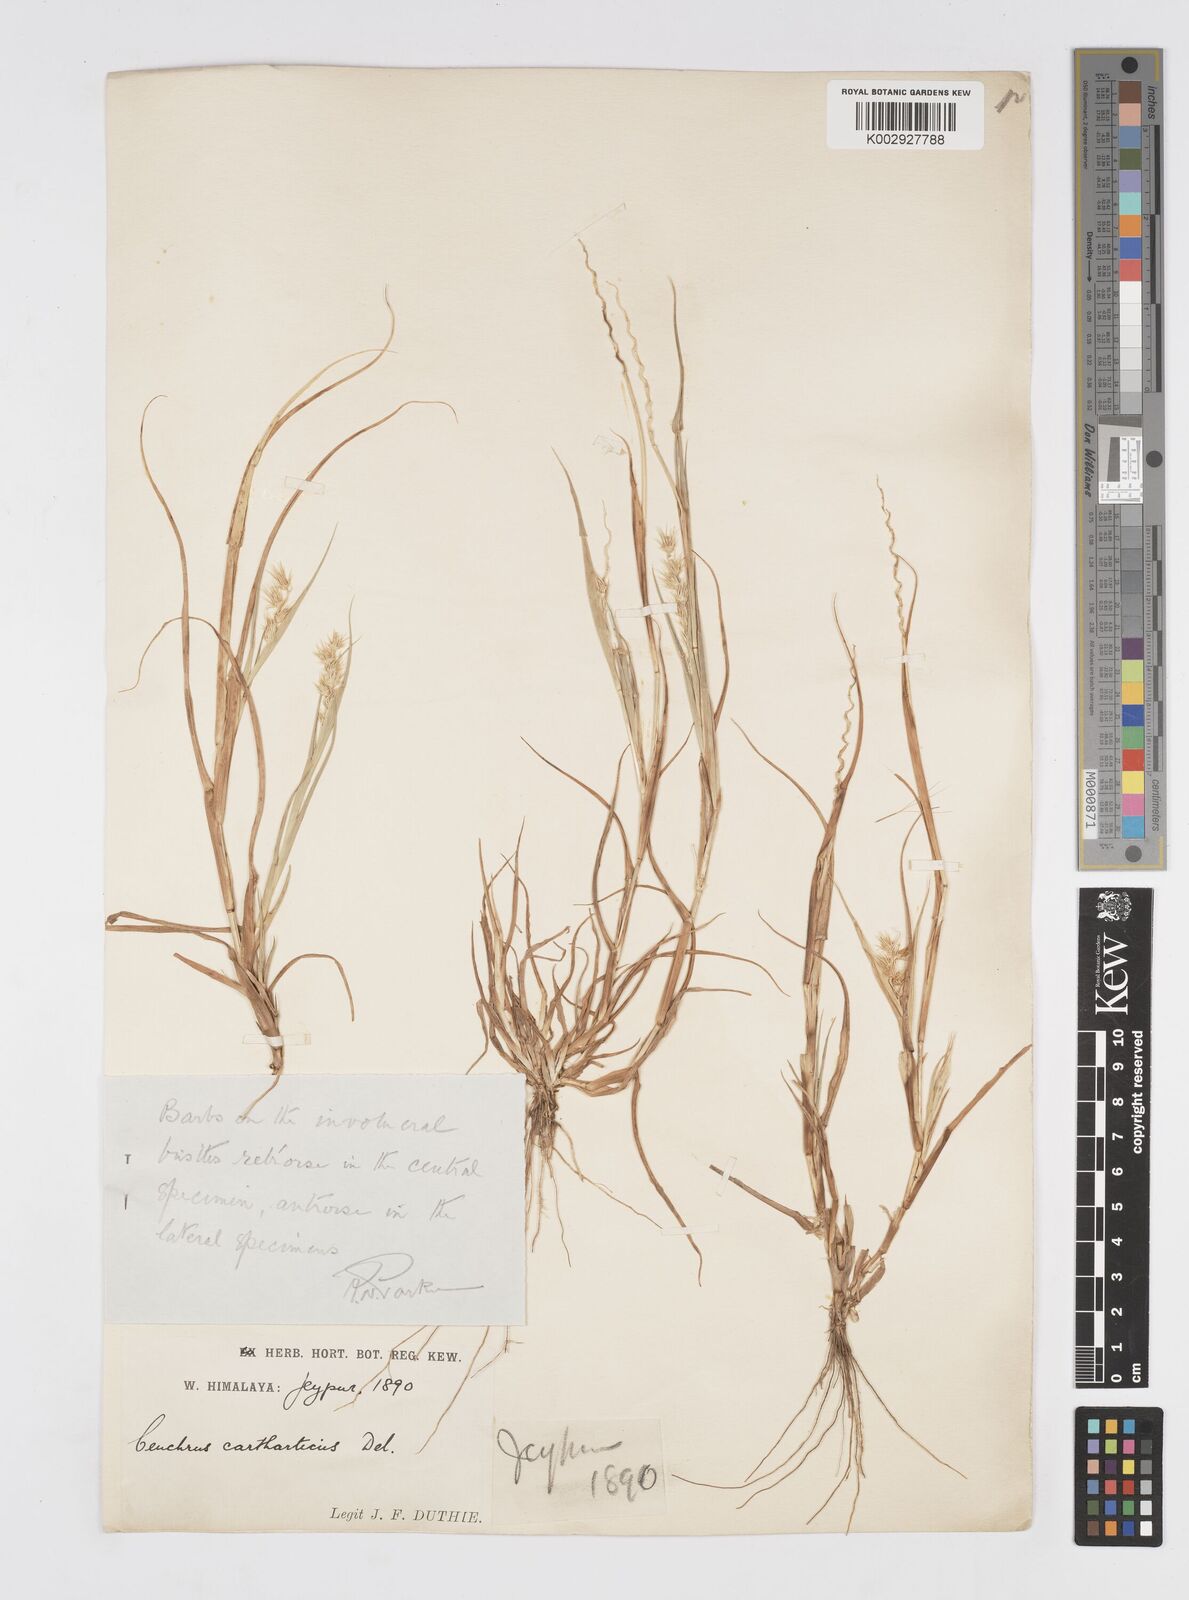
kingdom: Plantae
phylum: Tracheophyta
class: Liliopsida
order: Poales
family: Poaceae
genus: Cenchrus
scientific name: Cenchrus biflorus
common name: Indian sandbur
